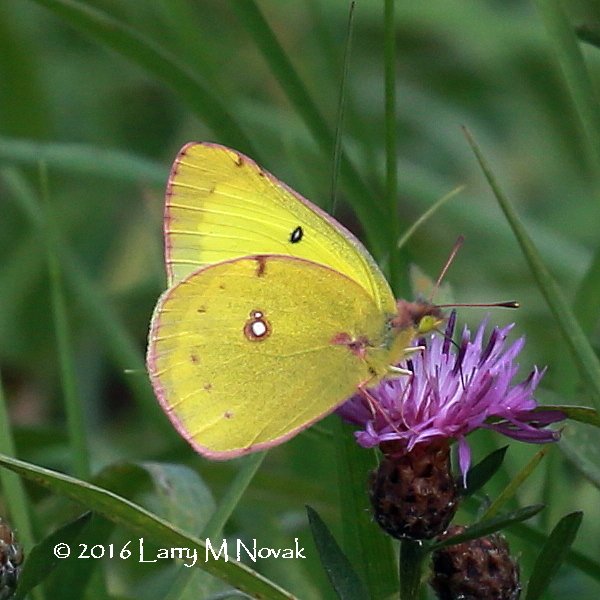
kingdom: Animalia
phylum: Arthropoda
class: Insecta
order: Lepidoptera
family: Pieridae
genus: Colias
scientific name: Colias philodice
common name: Clouded Sulphur
